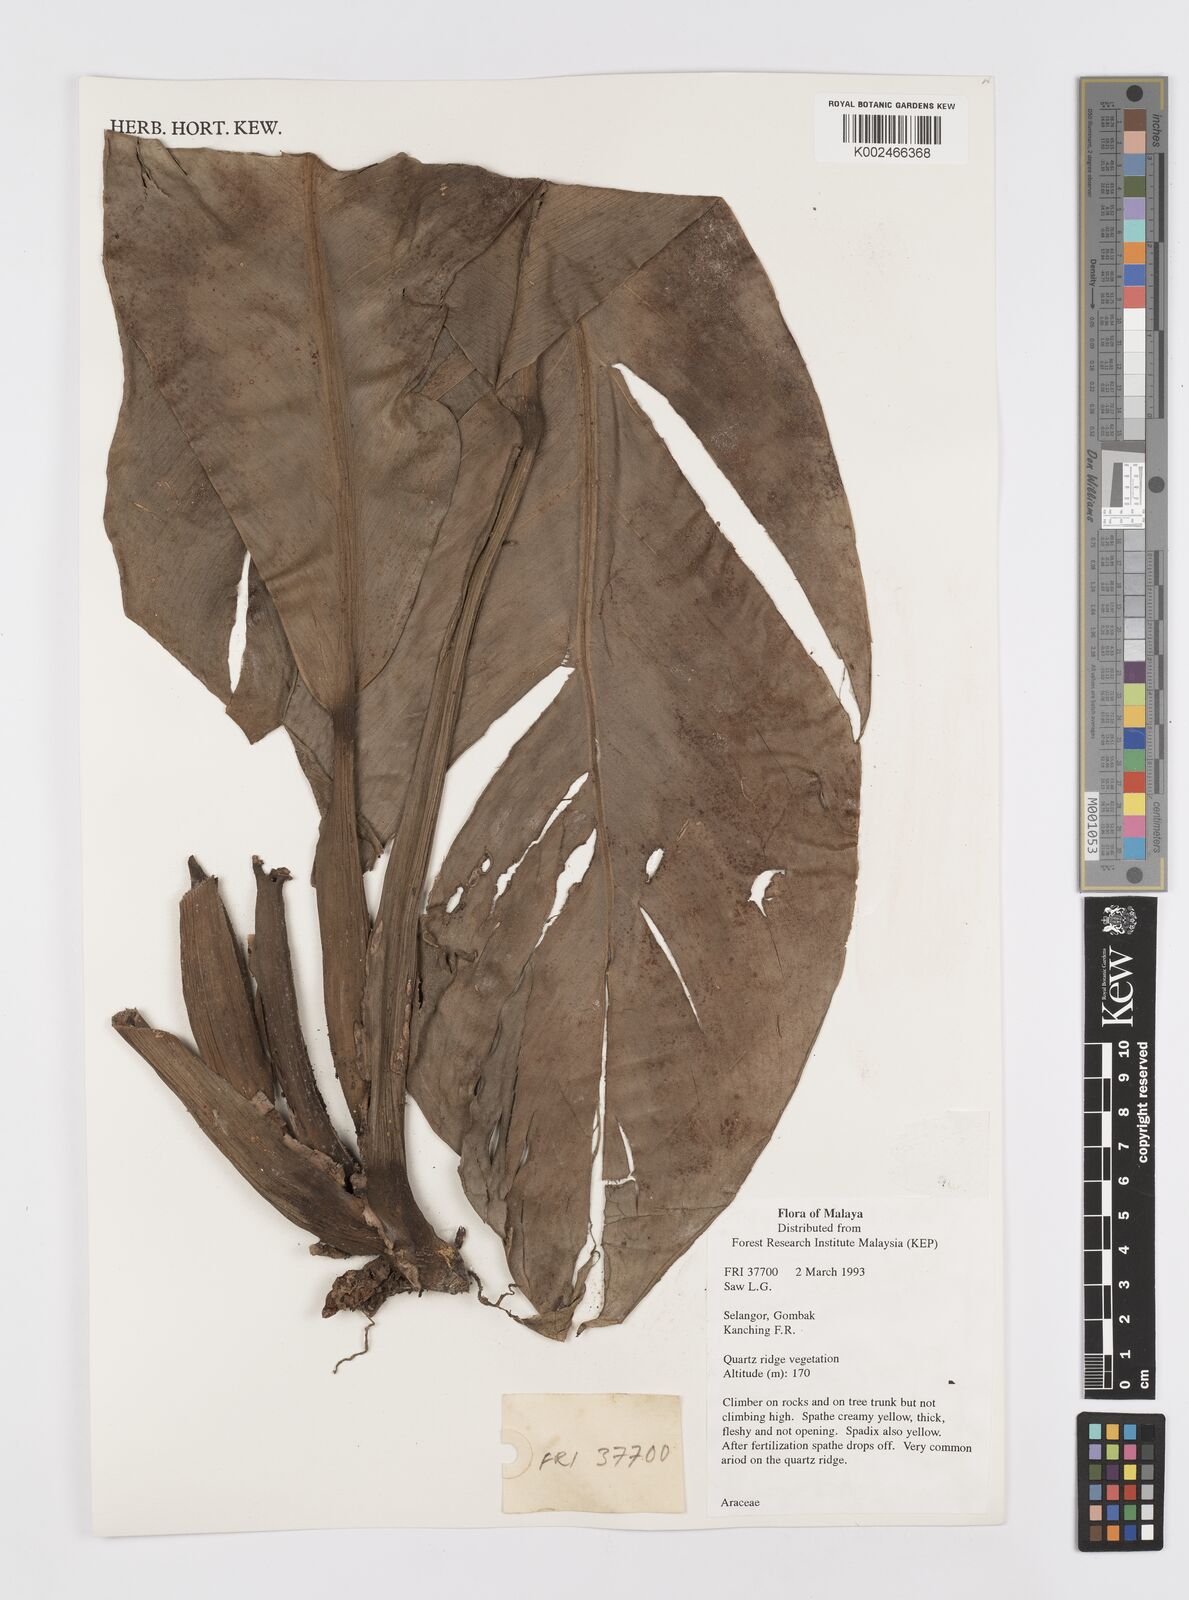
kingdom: Plantae
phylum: Tracheophyta
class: Liliopsida
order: Alismatales
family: Araceae
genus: Scindapsus
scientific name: Scindapsus beccarii
